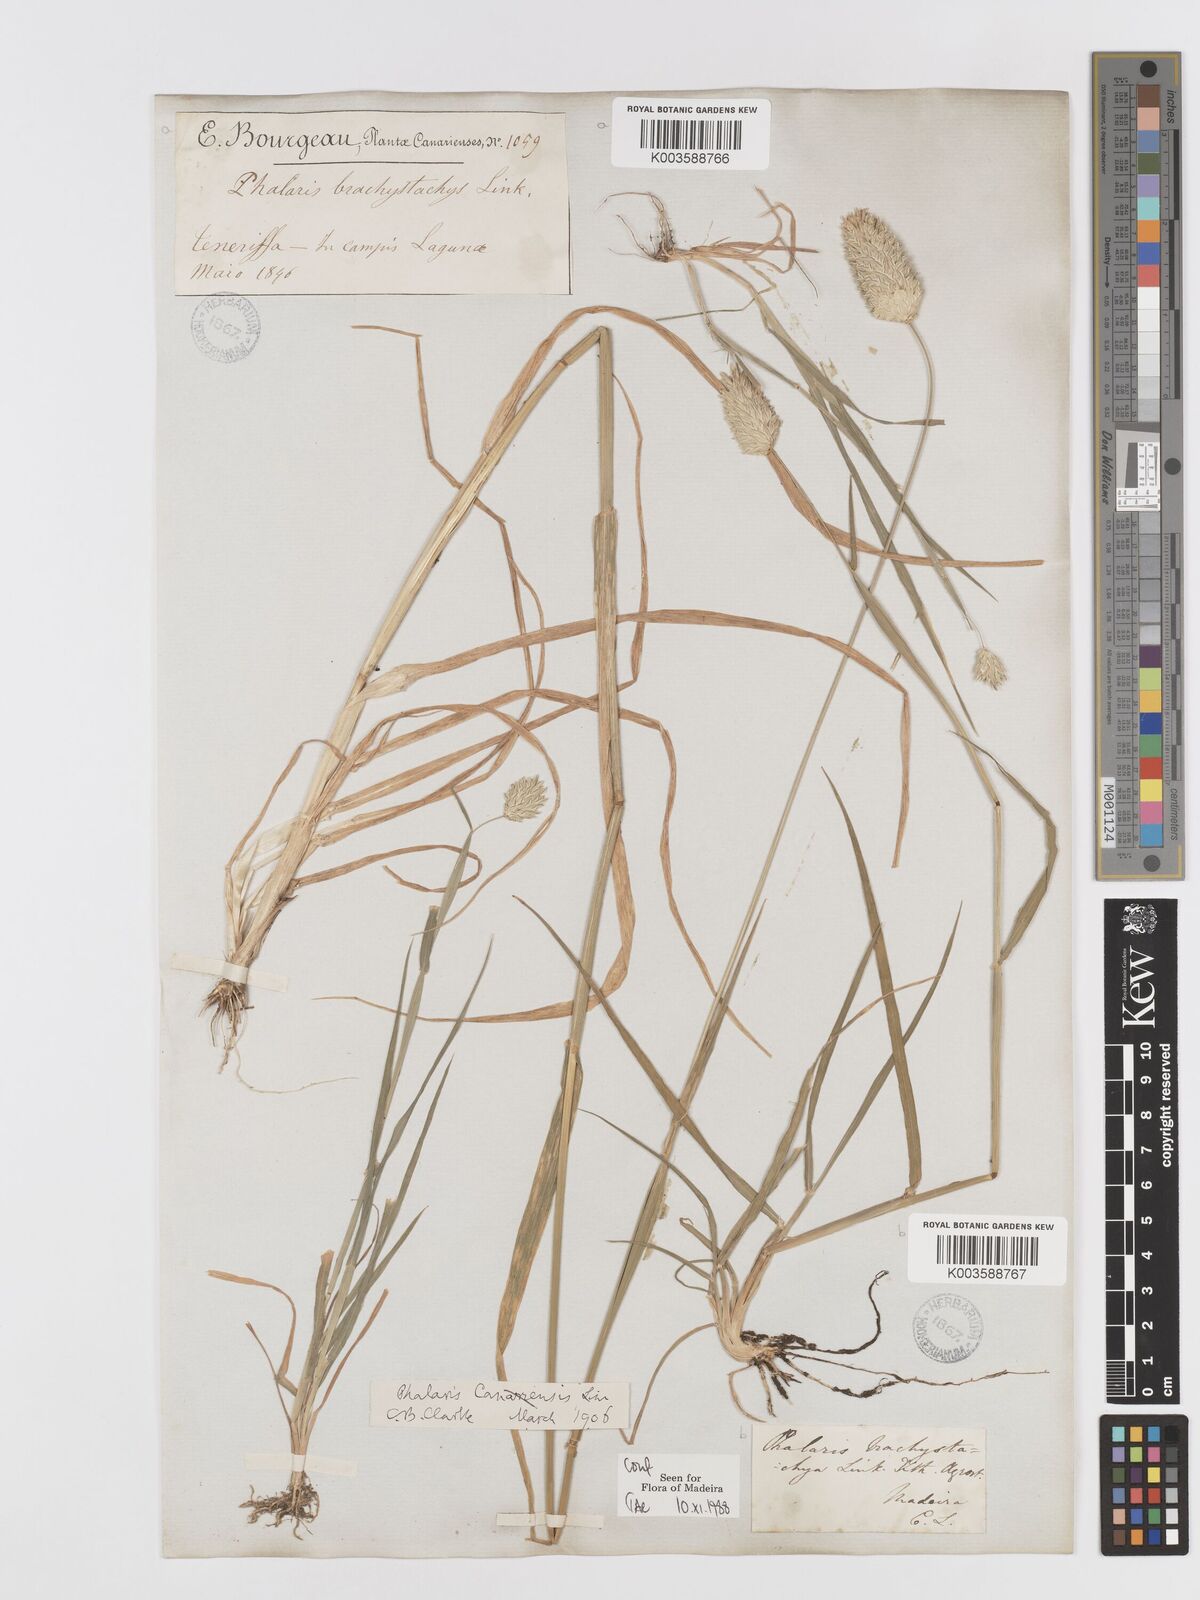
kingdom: Plantae
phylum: Tracheophyta
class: Liliopsida
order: Poales
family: Poaceae
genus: Phalaris
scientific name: Phalaris brachystachys
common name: Confused canary-grass
